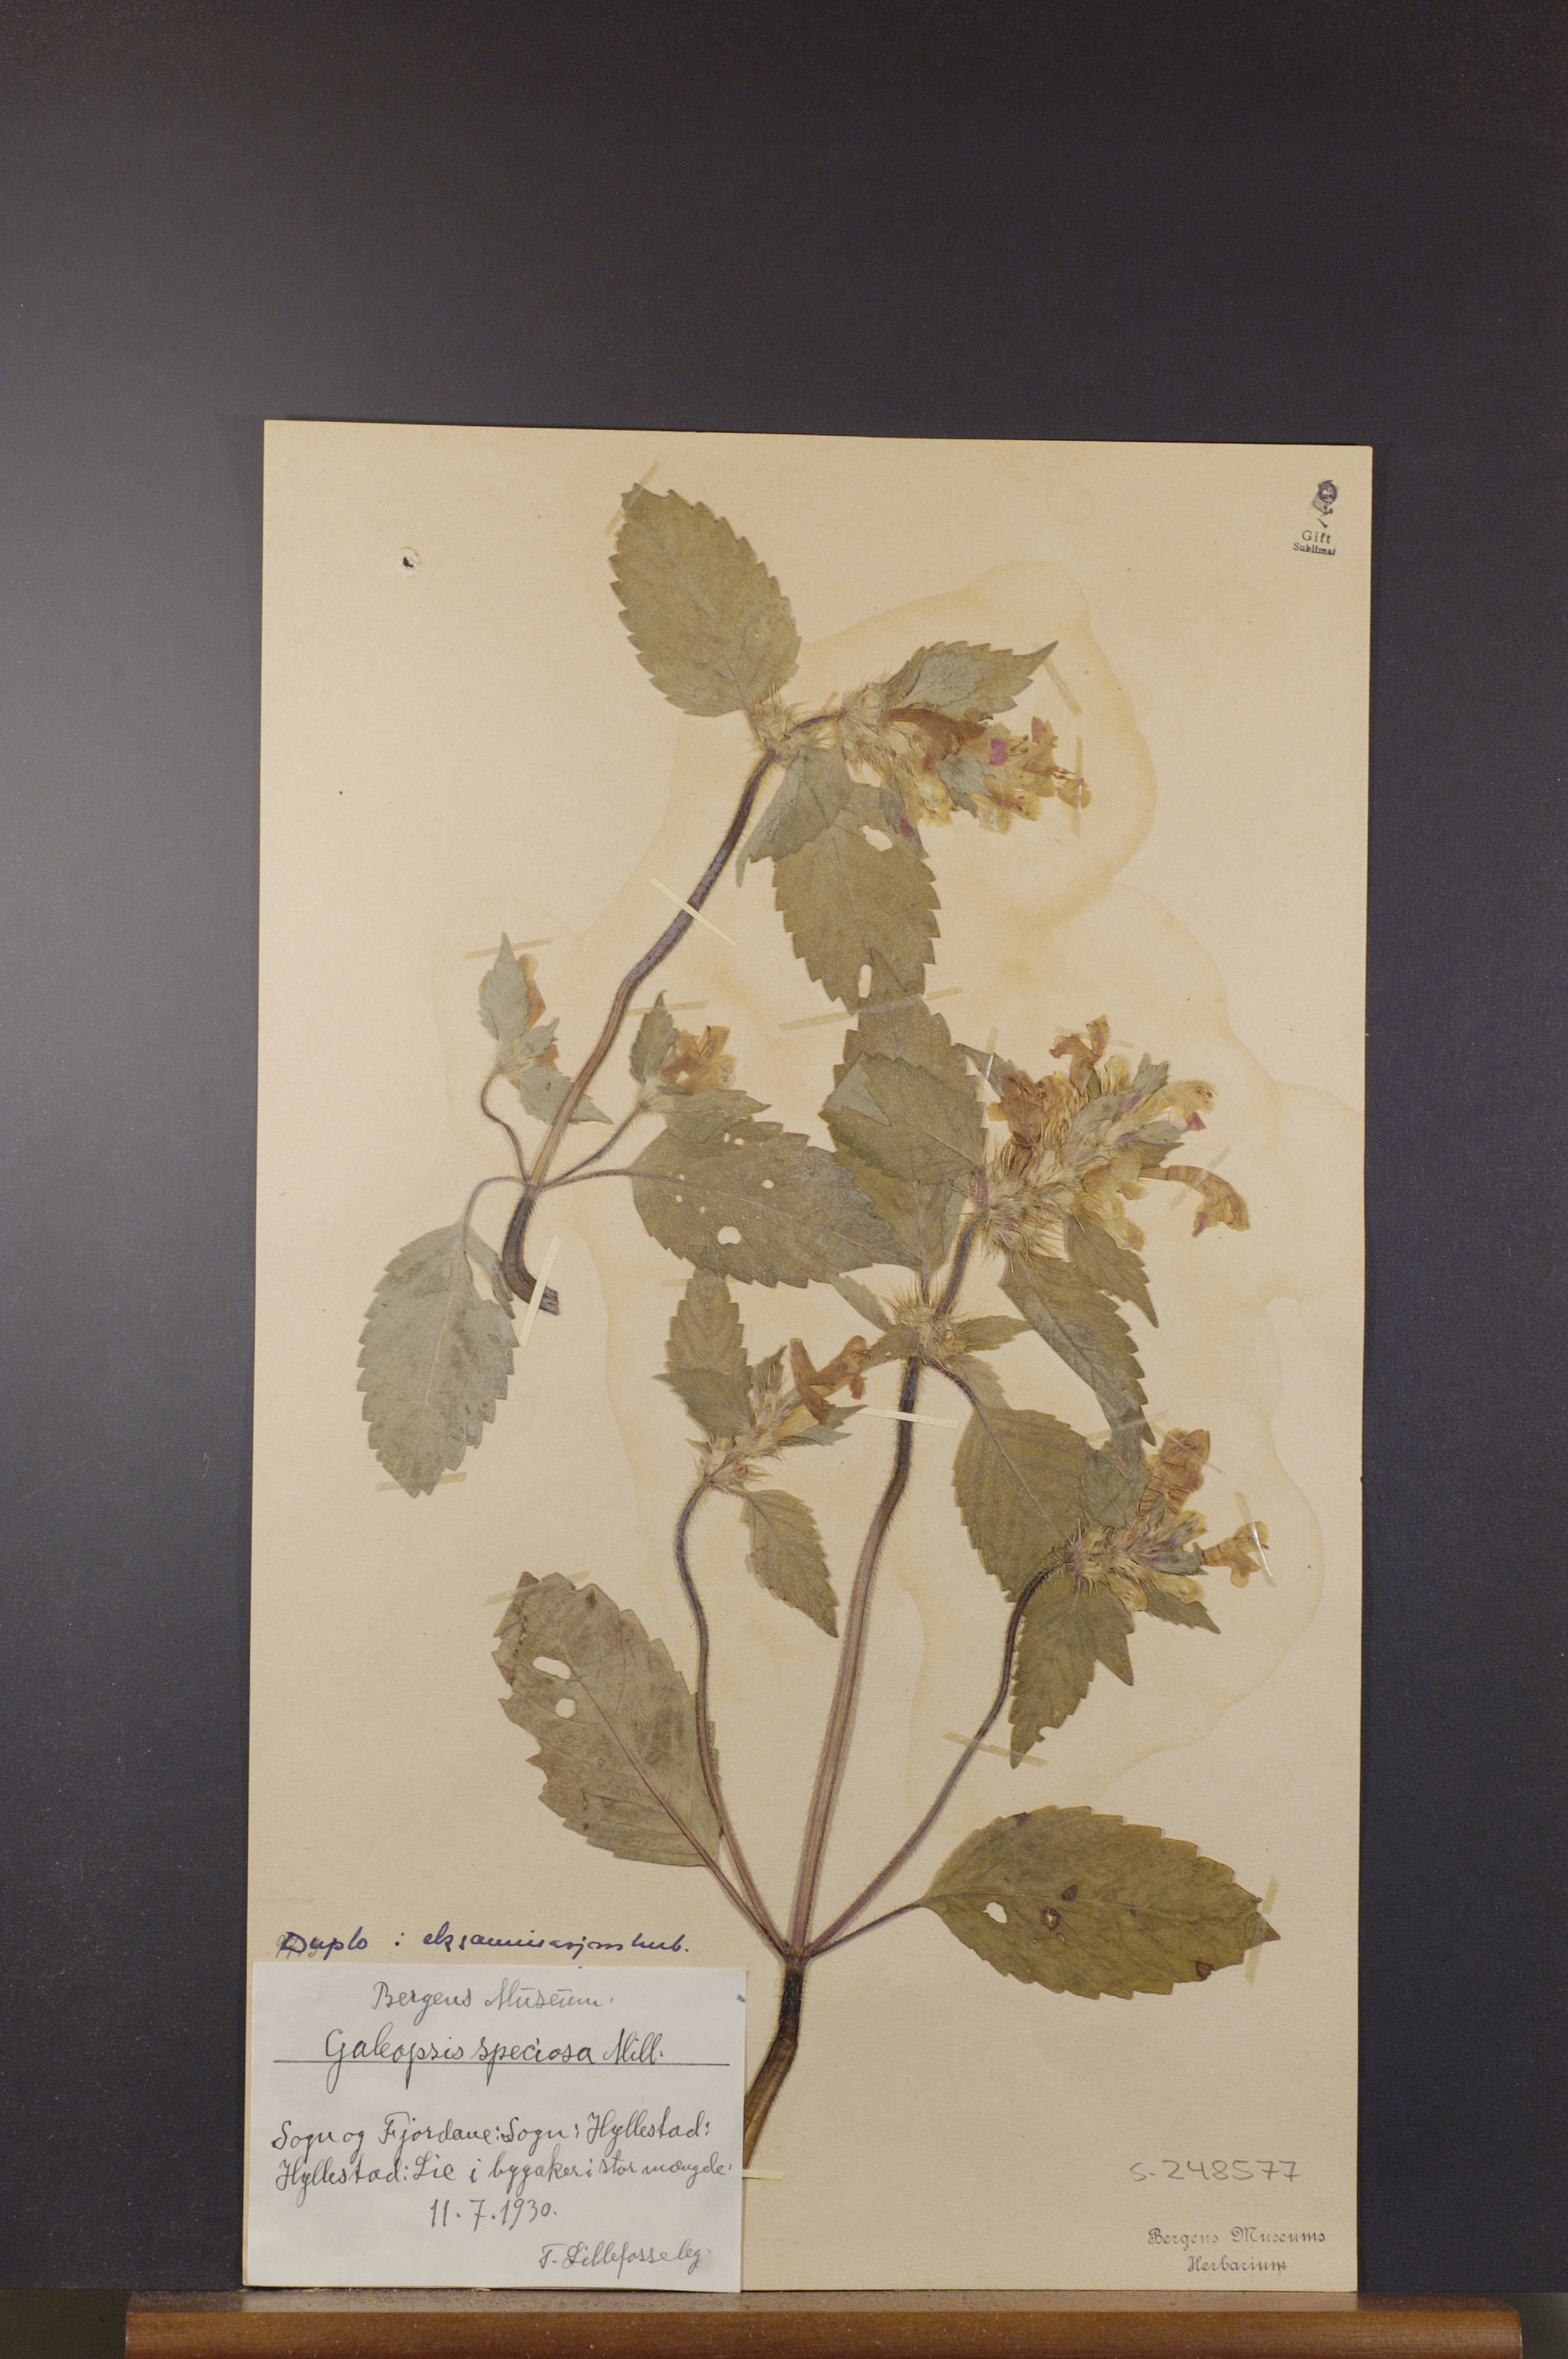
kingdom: Plantae
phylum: Tracheophyta
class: Magnoliopsida
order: Lamiales
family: Lamiaceae
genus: Galeopsis
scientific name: Galeopsis speciosa
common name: Large-flowered hemp-nettle
